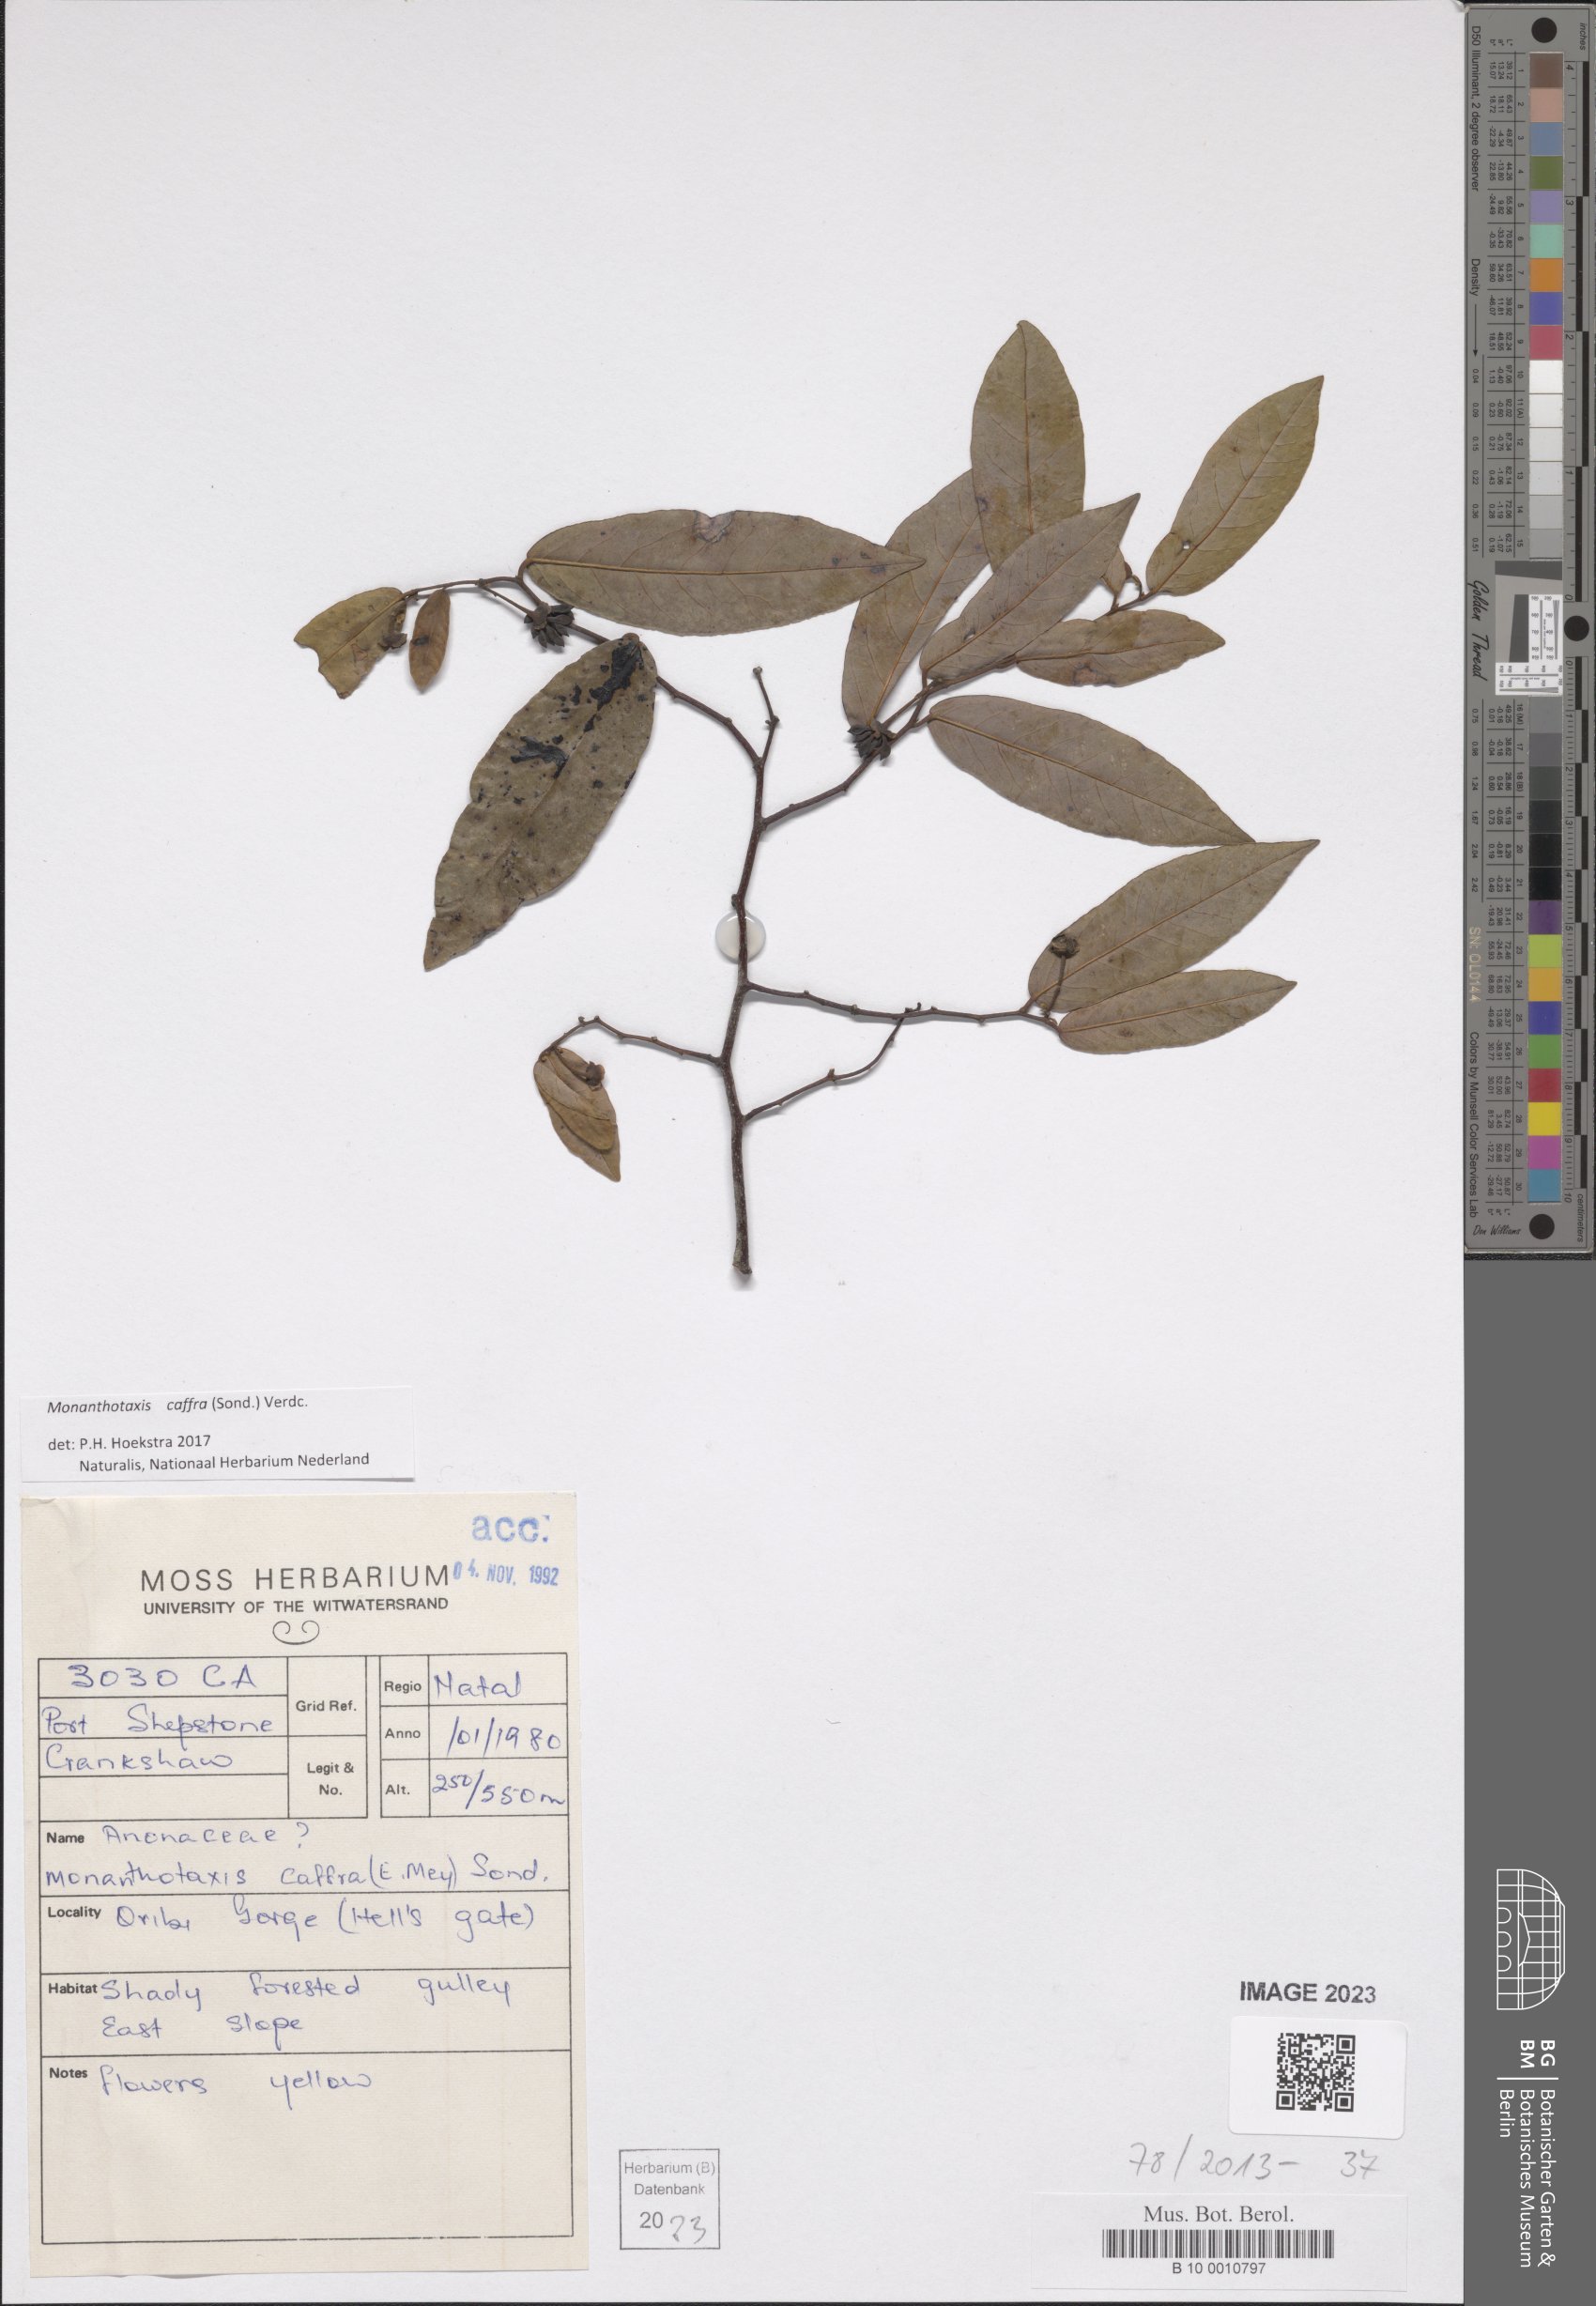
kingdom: Plantae
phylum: Tracheophyta
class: Magnoliopsida
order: Magnoliales
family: Annonaceae
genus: Monanthotaxis
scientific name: Monanthotaxis caffra
